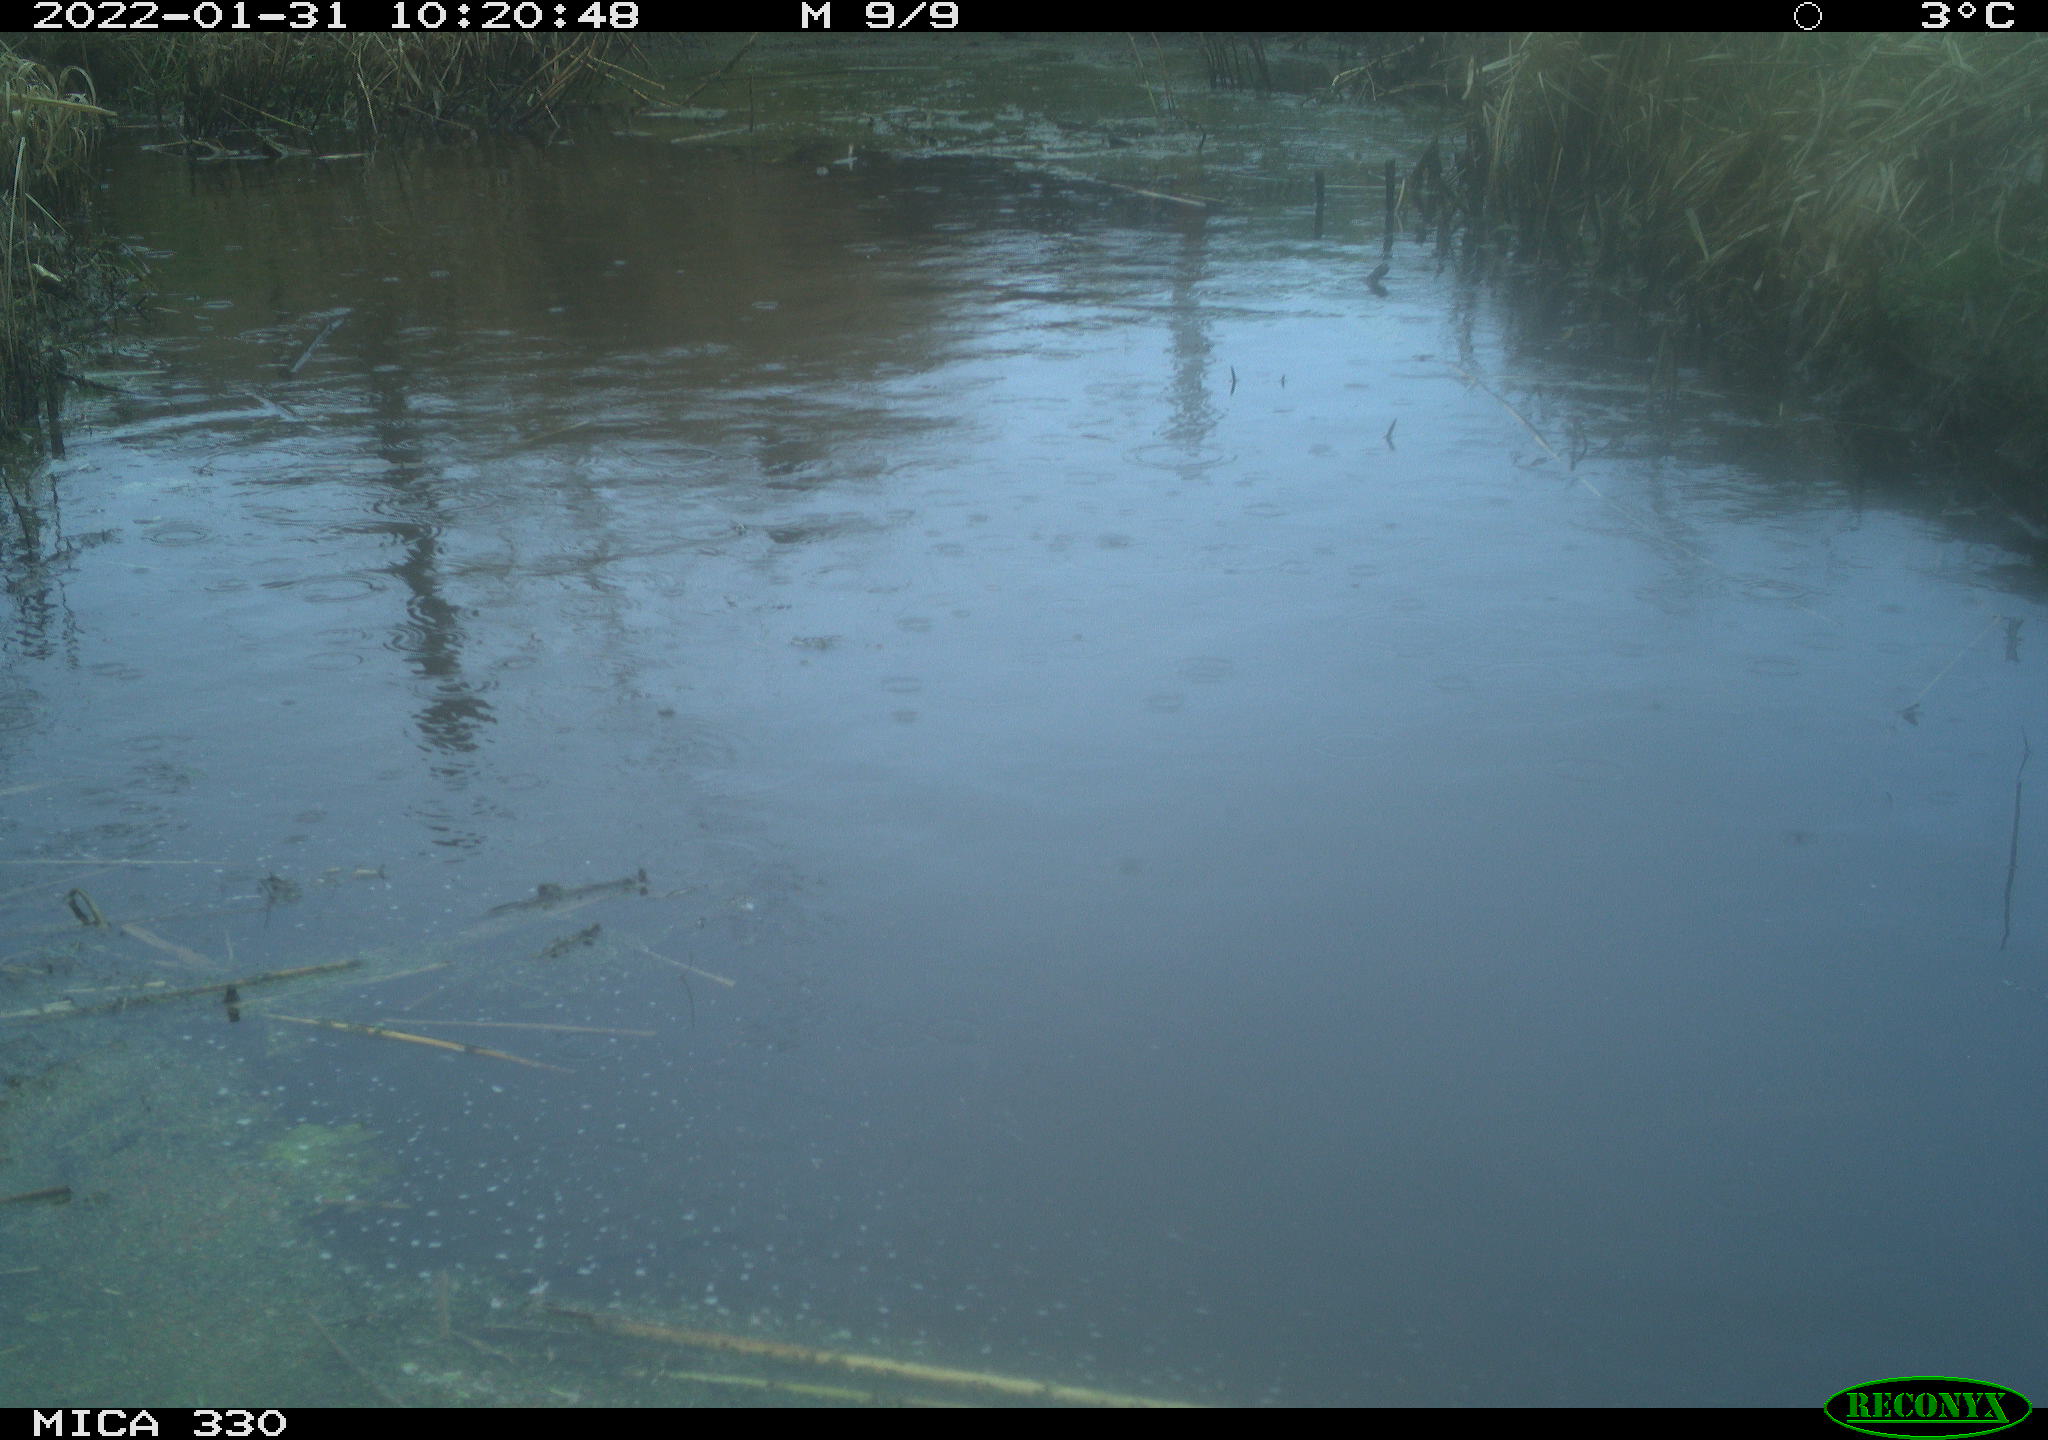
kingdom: Animalia
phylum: Chordata
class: Aves
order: Gruiformes
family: Rallidae
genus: Gallinula
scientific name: Gallinula chloropus
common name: Common moorhen
